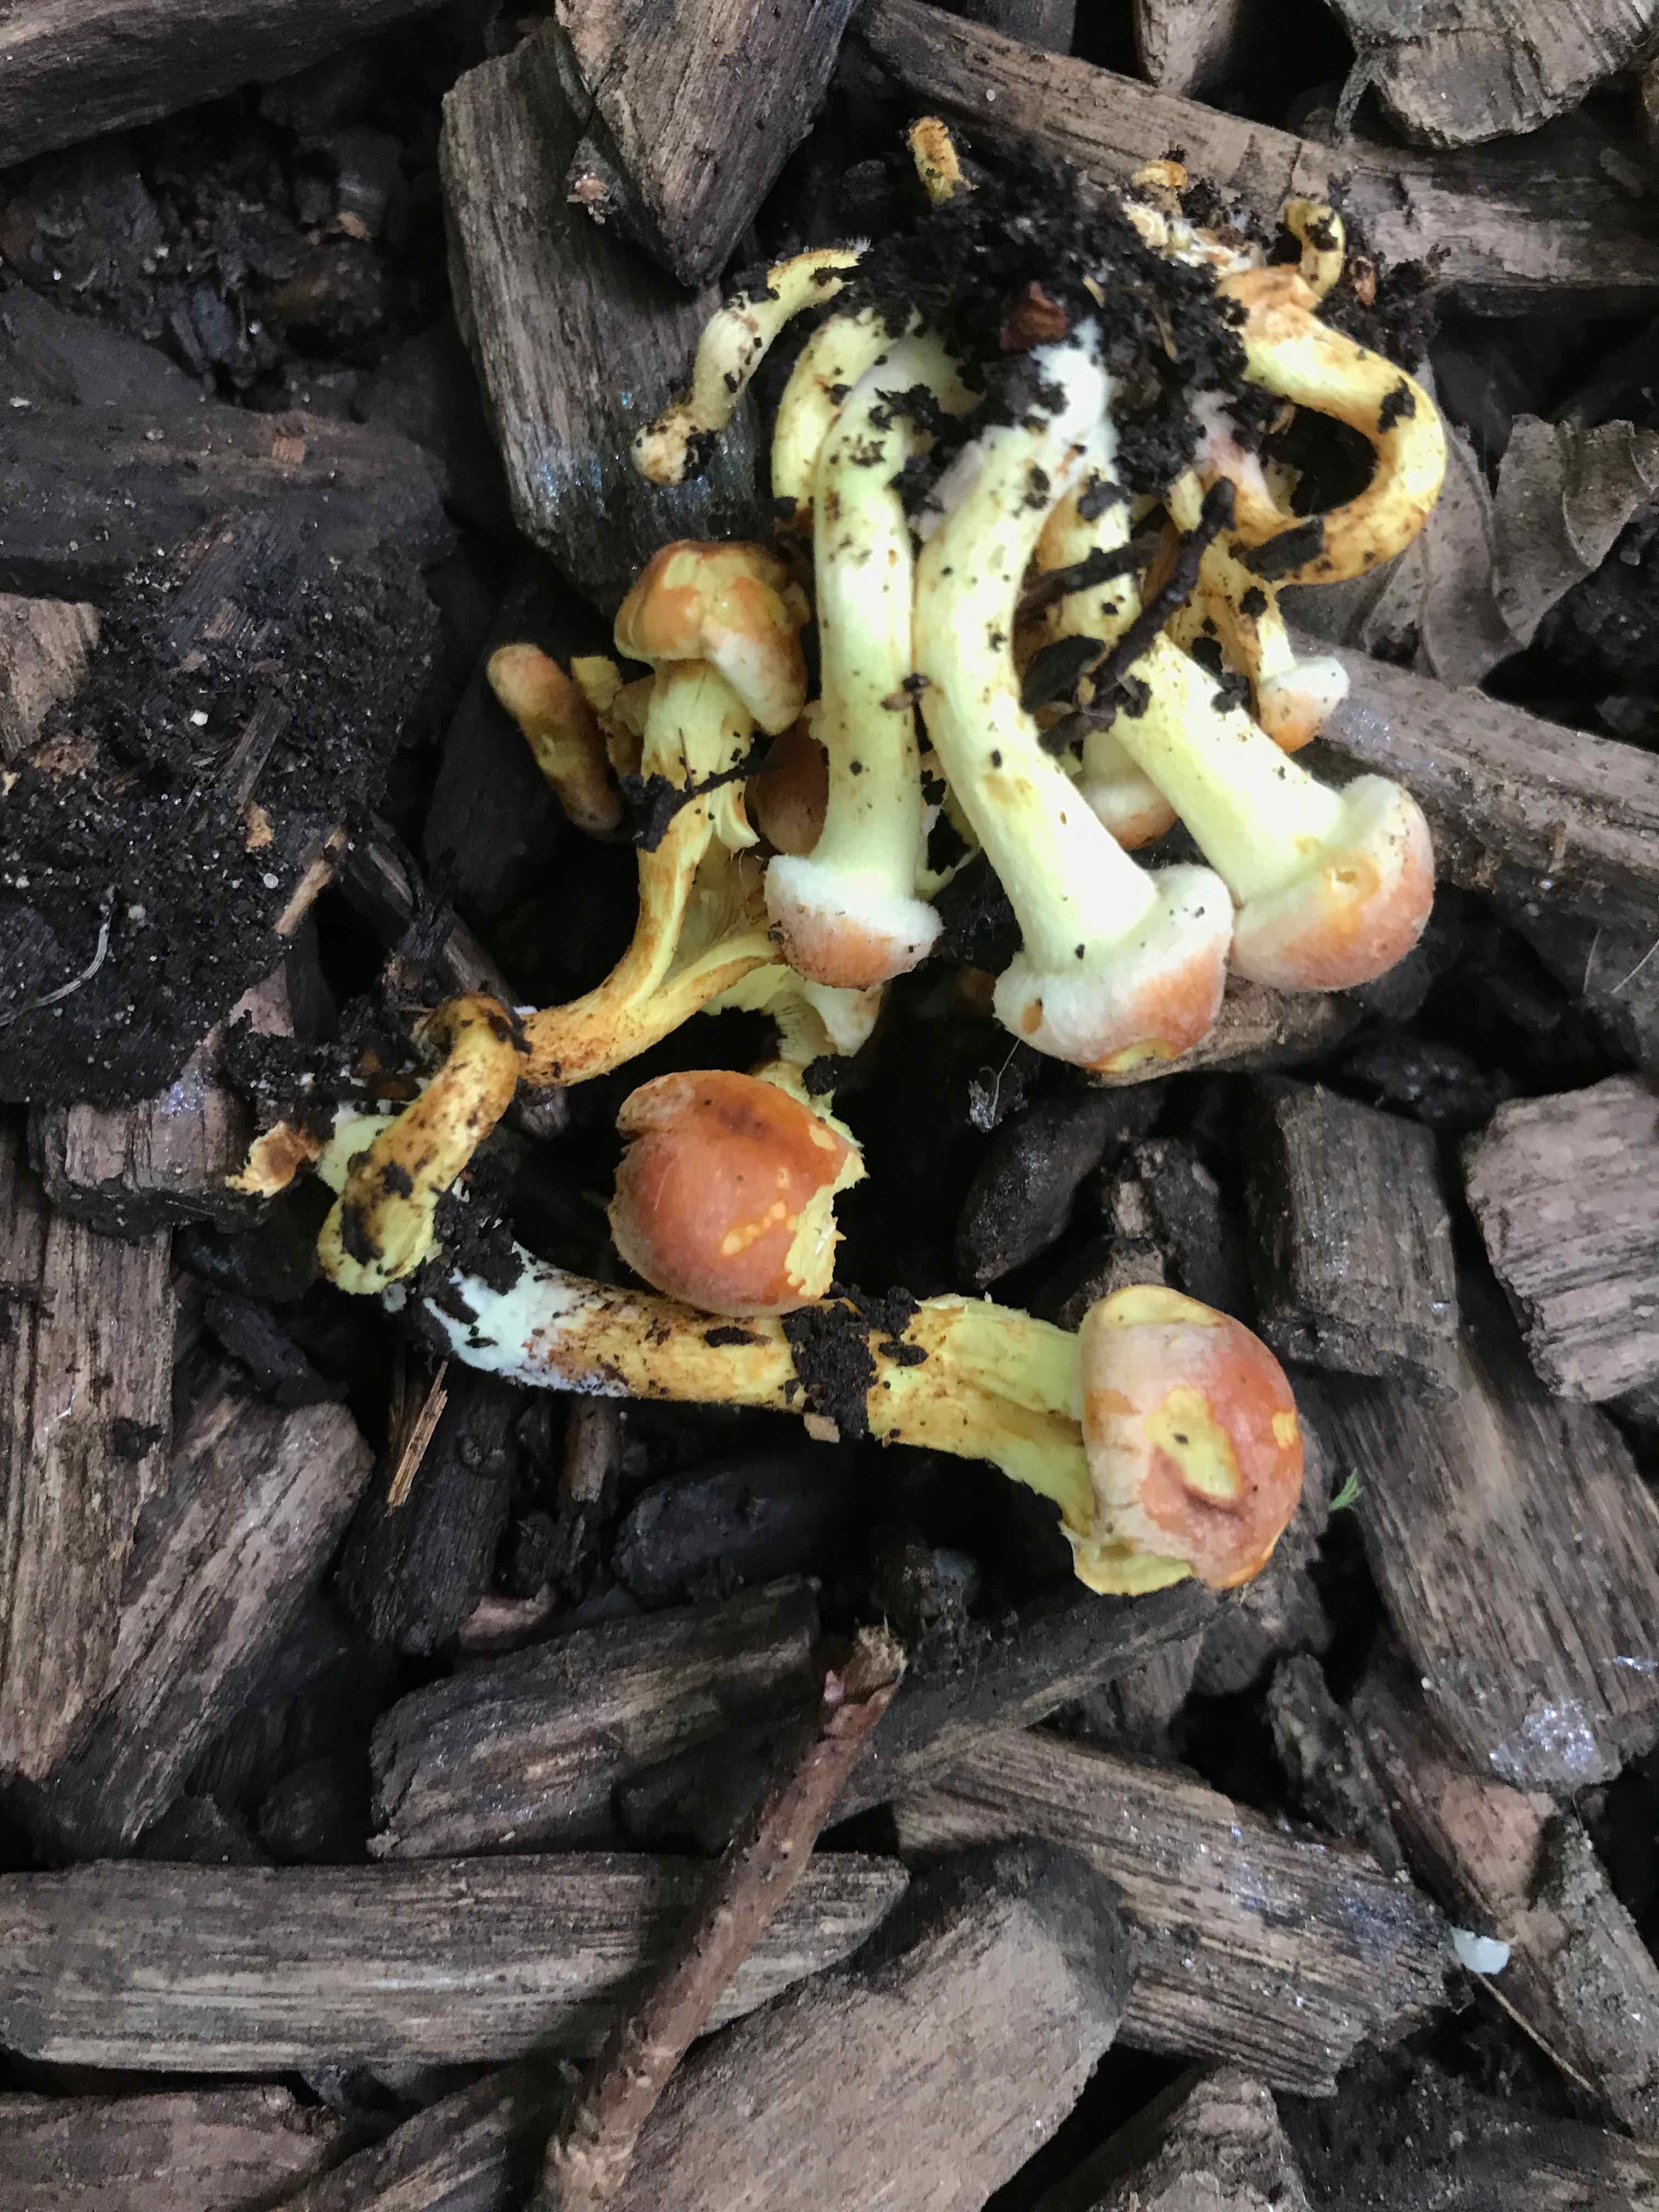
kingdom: Fungi
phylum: Basidiomycota
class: Agaricomycetes
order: Agaricales
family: Strophariaceae
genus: Hypholoma
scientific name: Hypholoma fasciculare
